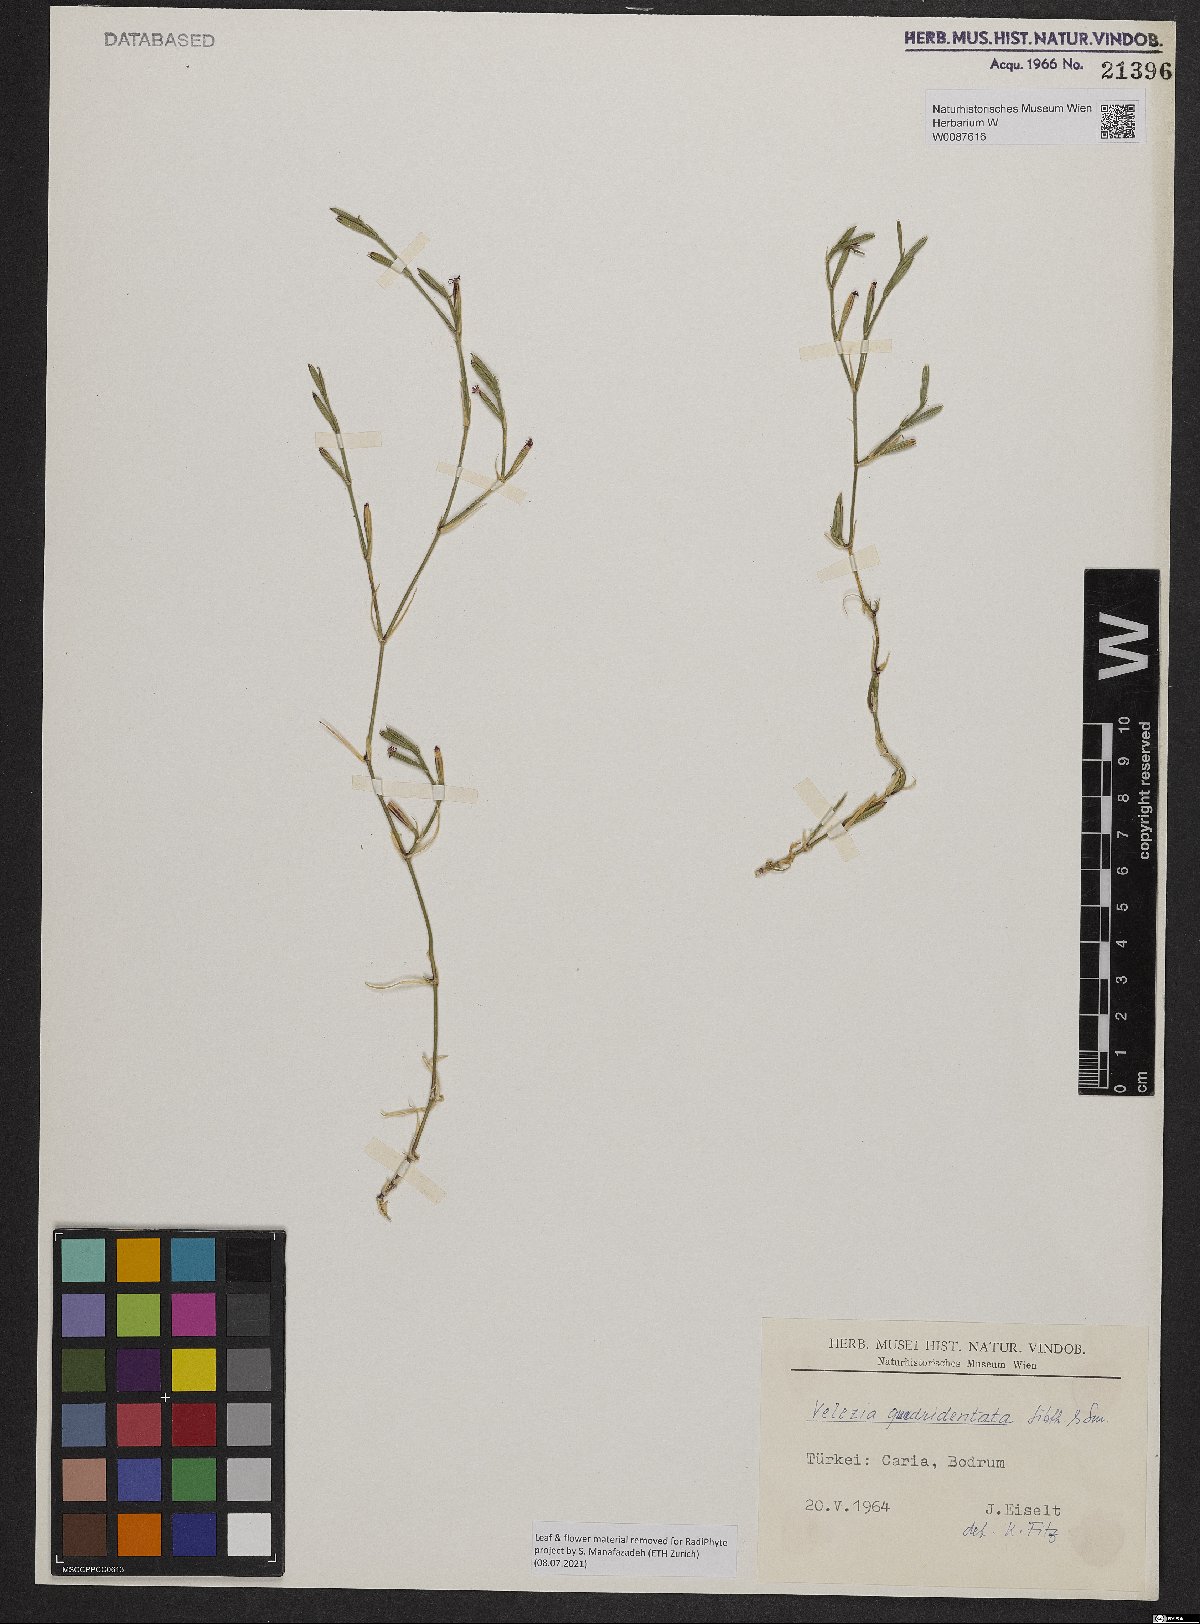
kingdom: Plantae
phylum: Tracheophyta
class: Magnoliopsida
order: Caryophyllales
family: Caryophyllaceae
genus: Dianthus
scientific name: Dianthus quadridentatus
